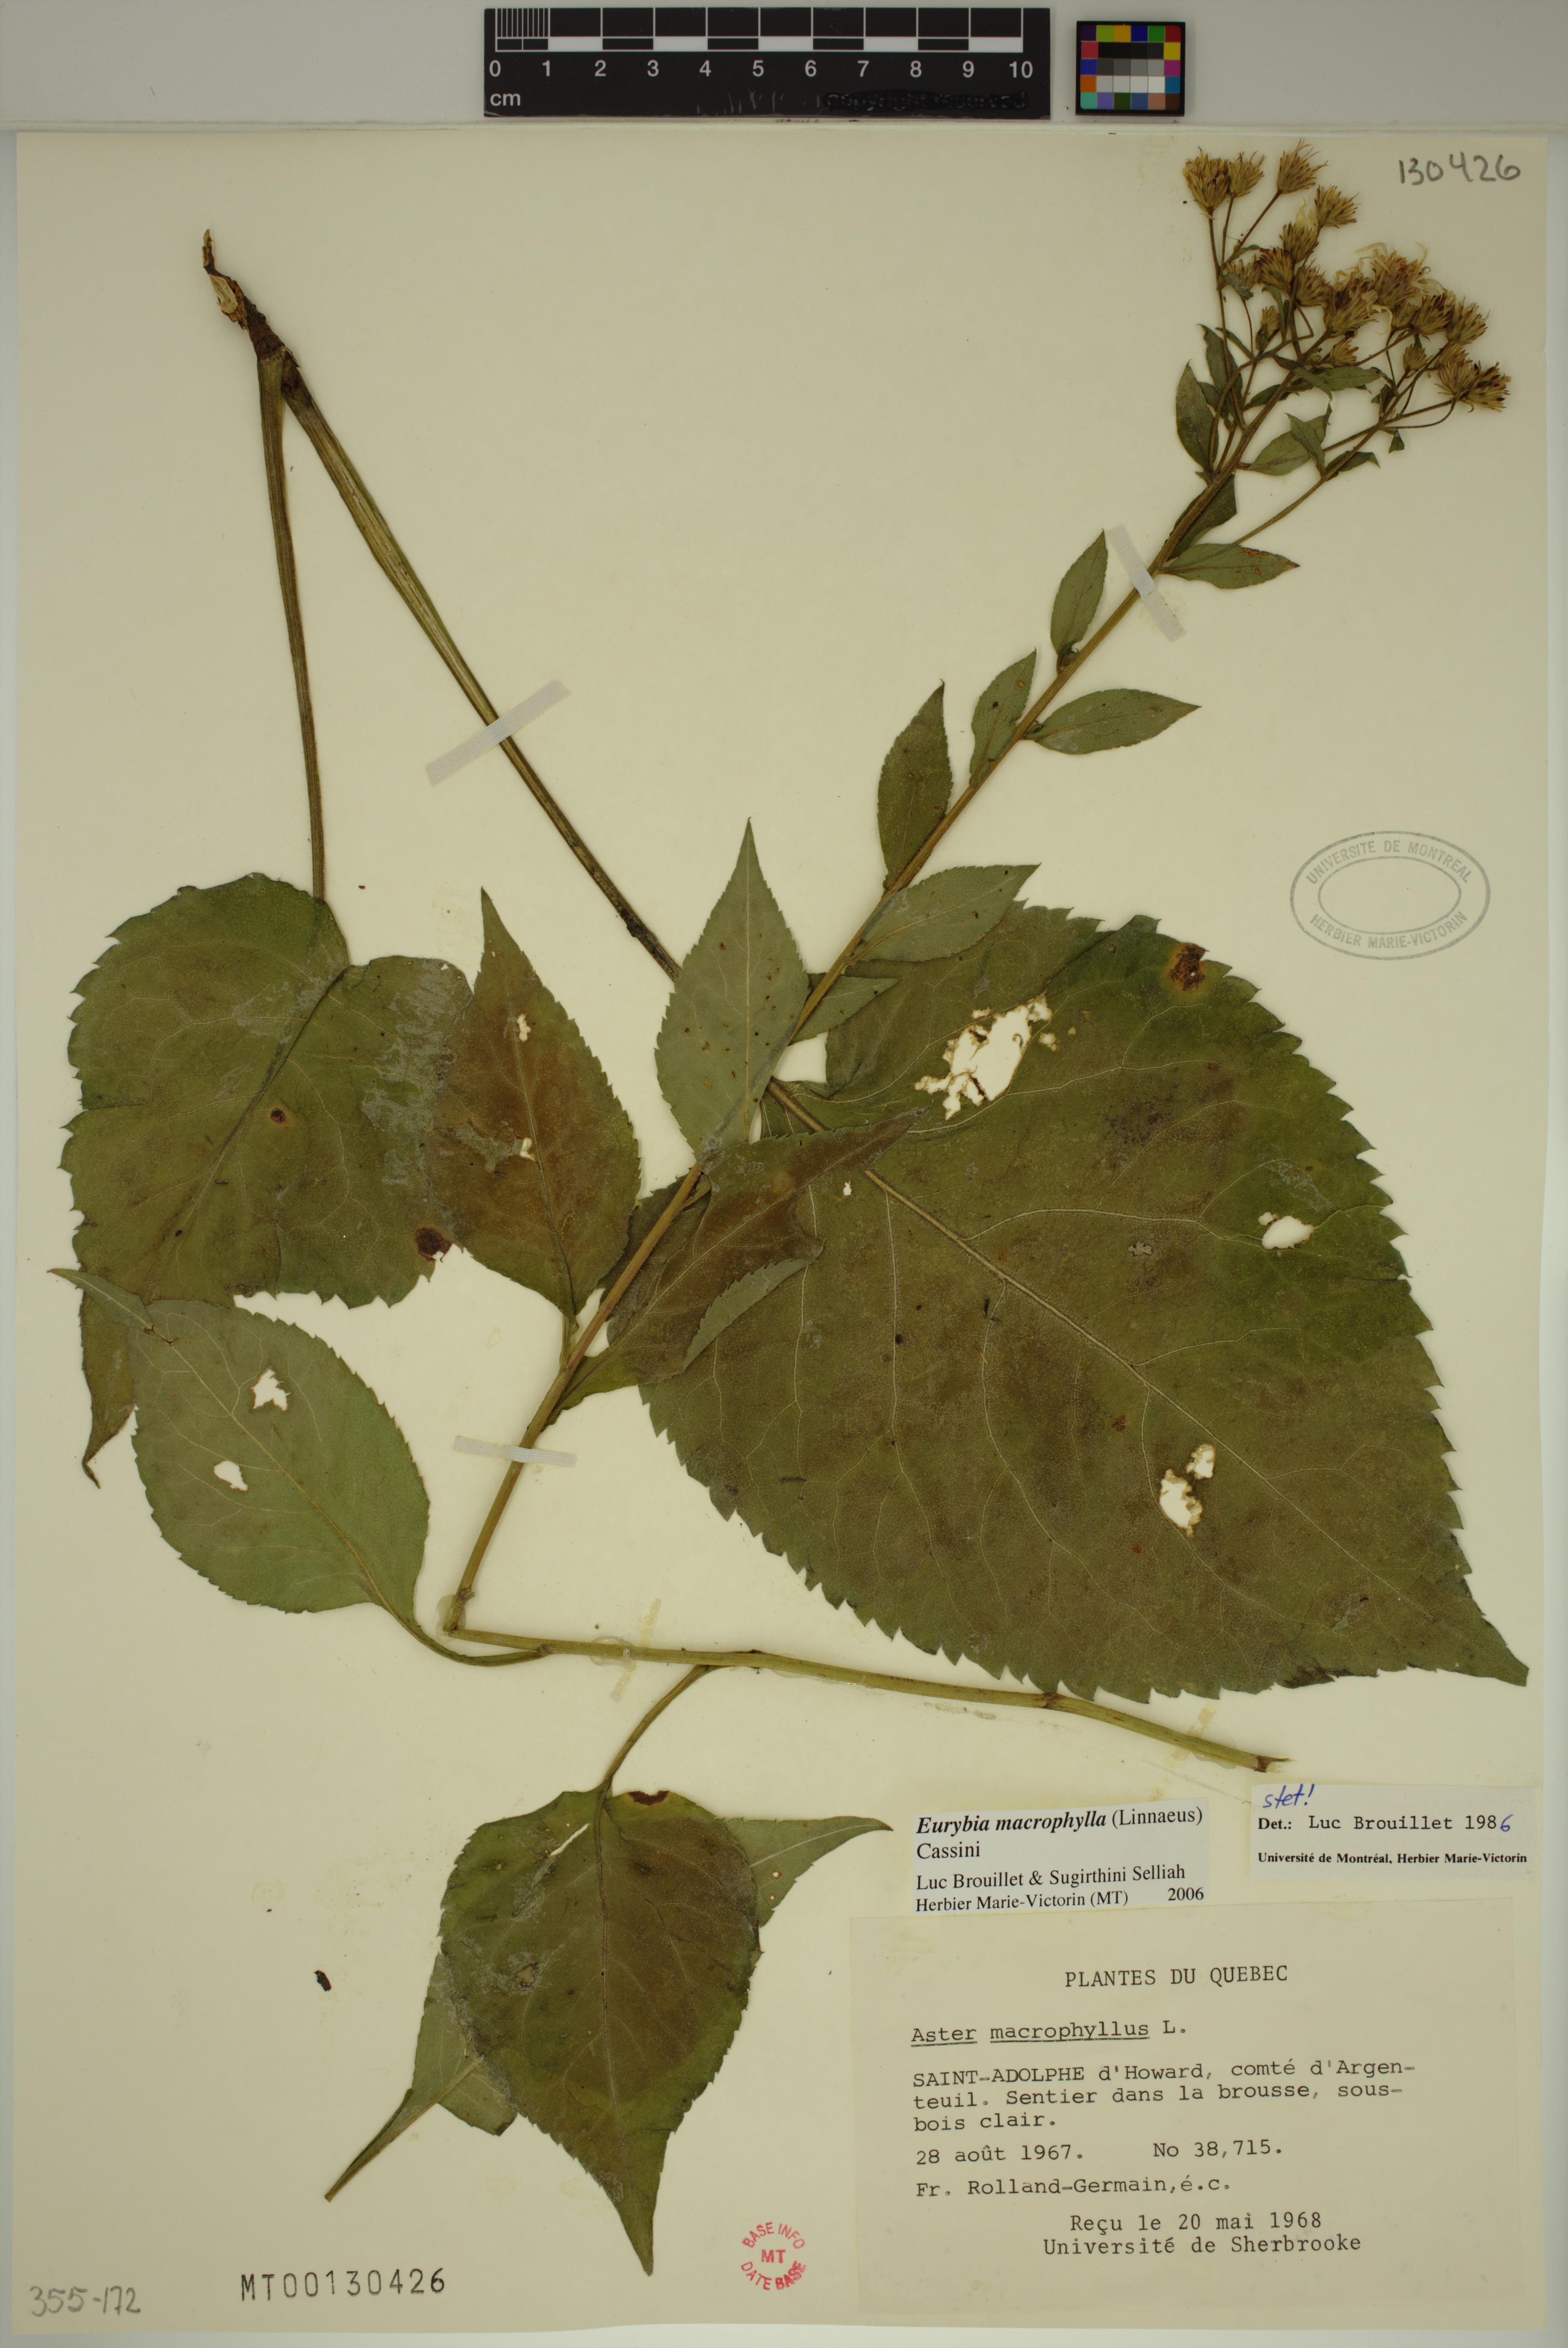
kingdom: Plantae
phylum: Tracheophyta
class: Magnoliopsida
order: Asterales
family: Asteraceae
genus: Eurybia
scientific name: Eurybia macrophylla
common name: Big-leaved aster
